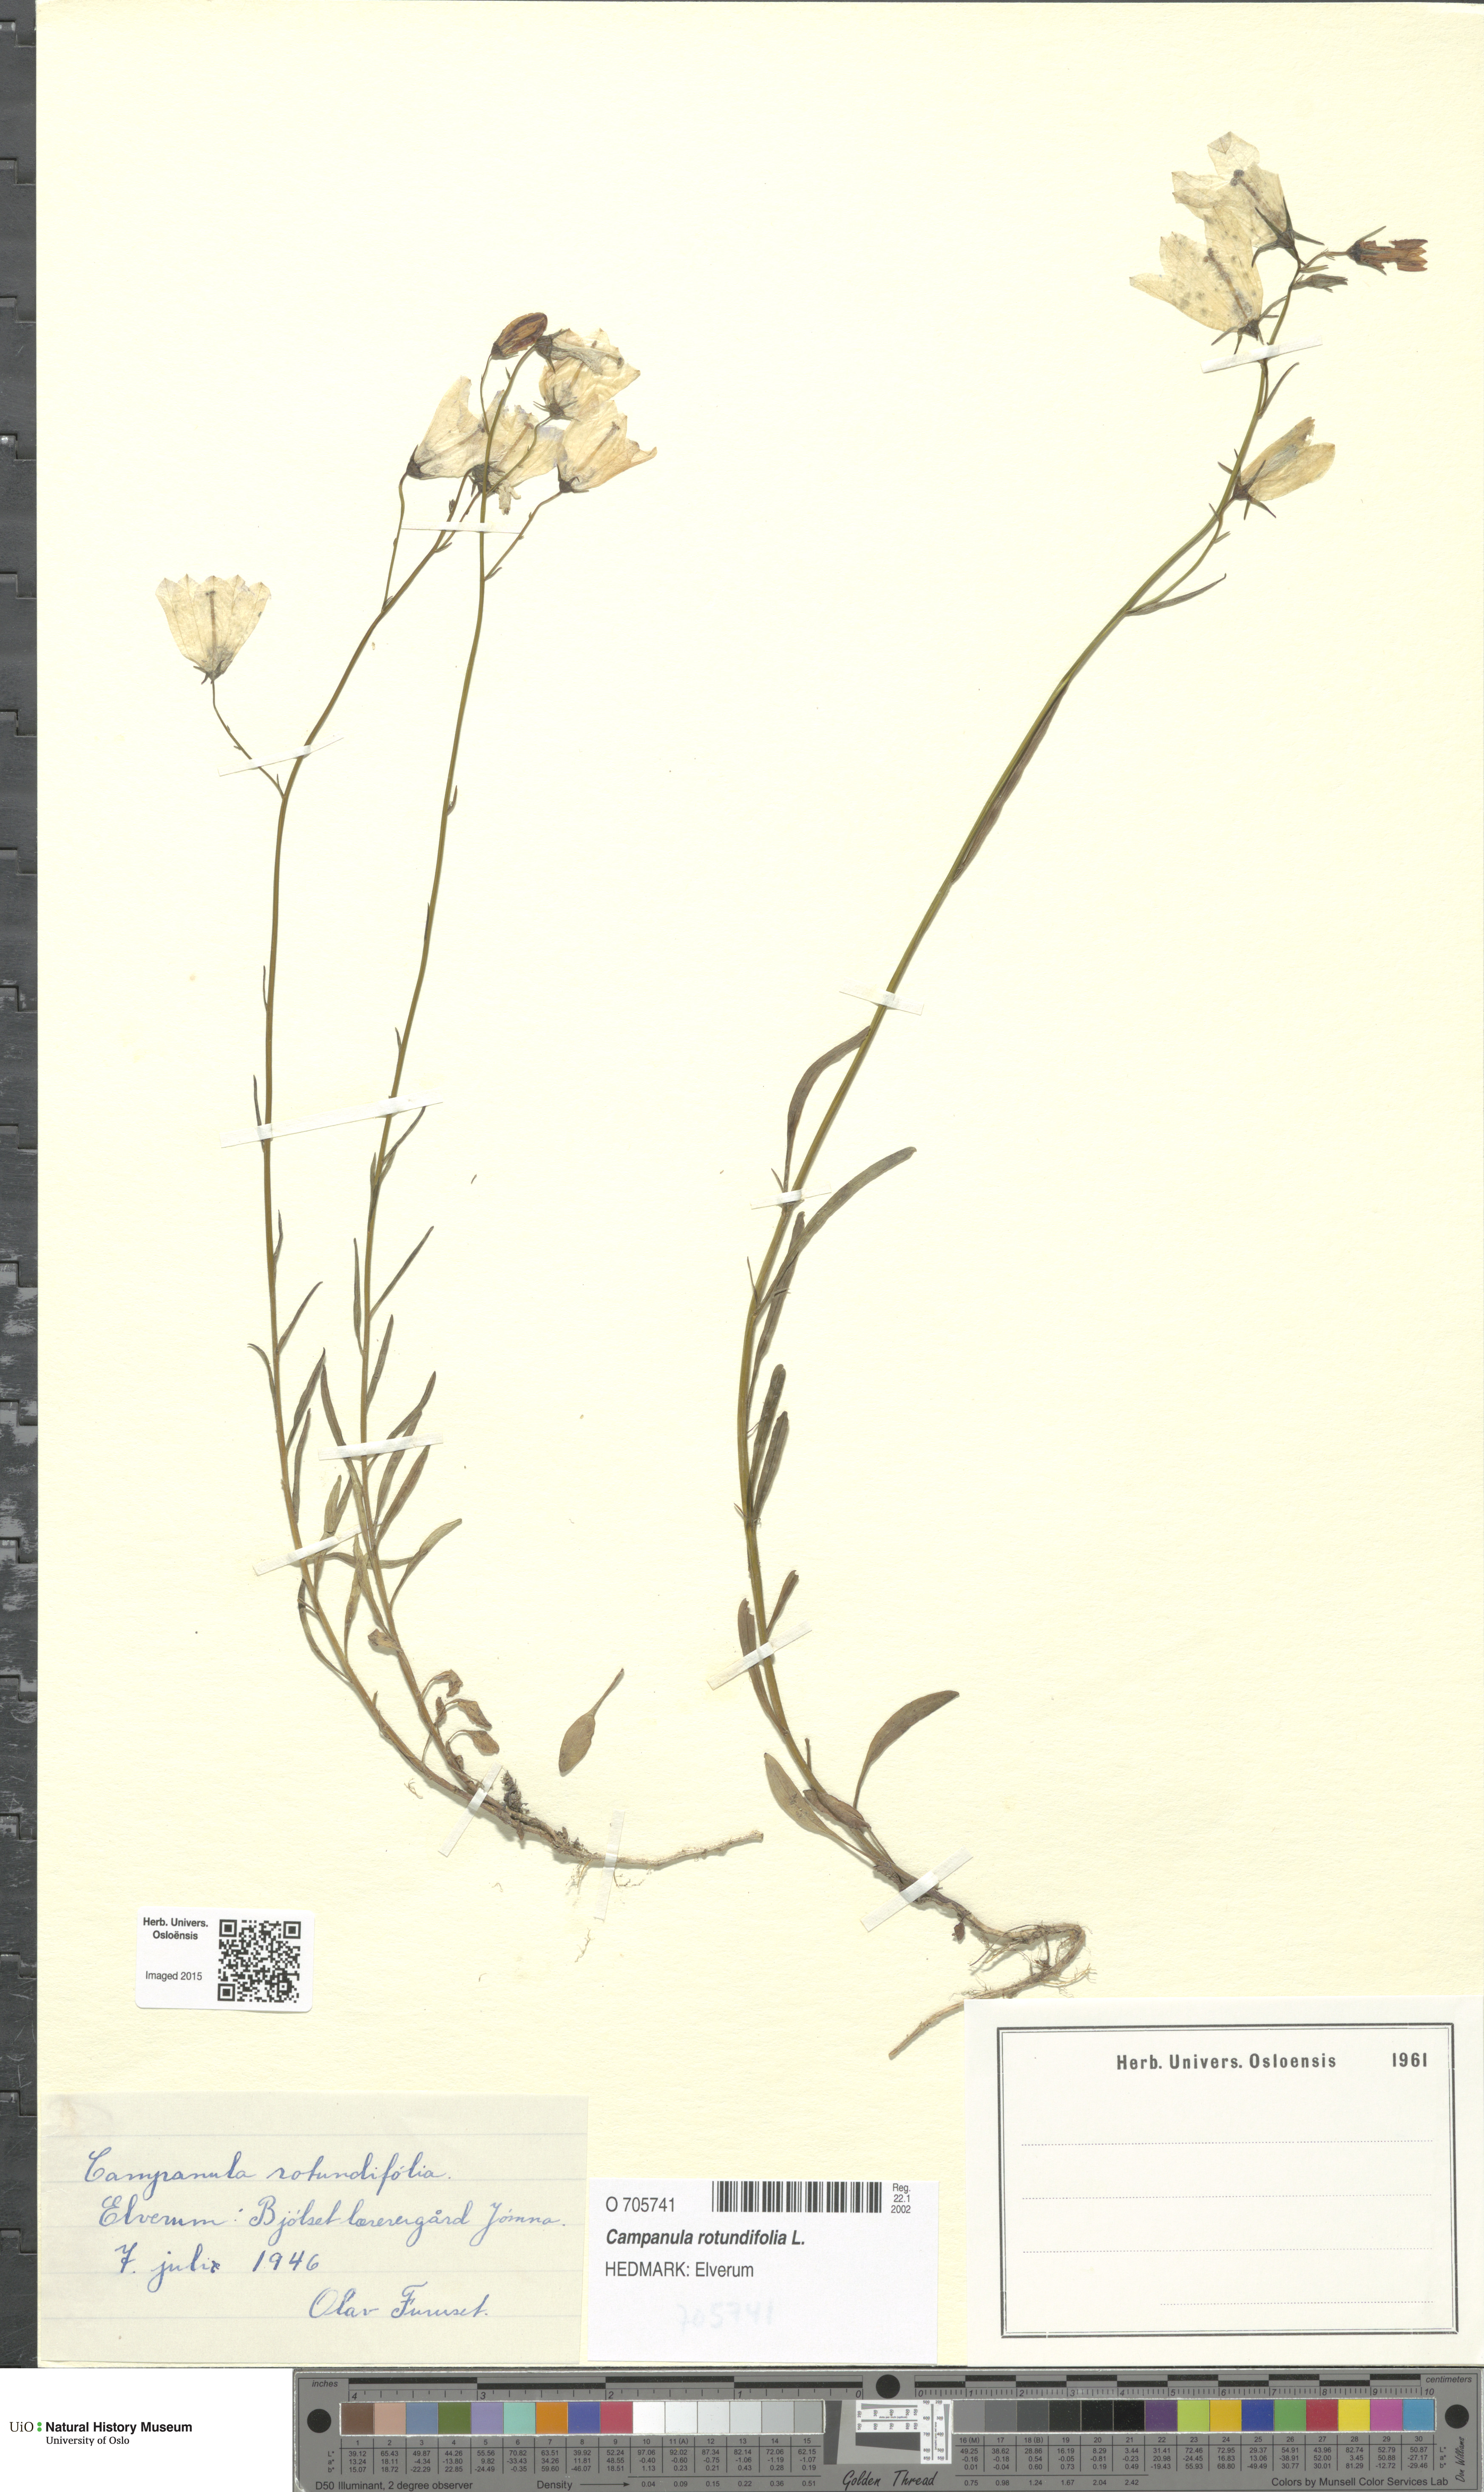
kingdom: Plantae
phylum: Tracheophyta
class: Magnoliopsida
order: Asterales
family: Campanulaceae
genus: Campanula
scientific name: Campanula rotundifolia
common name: Harebell
